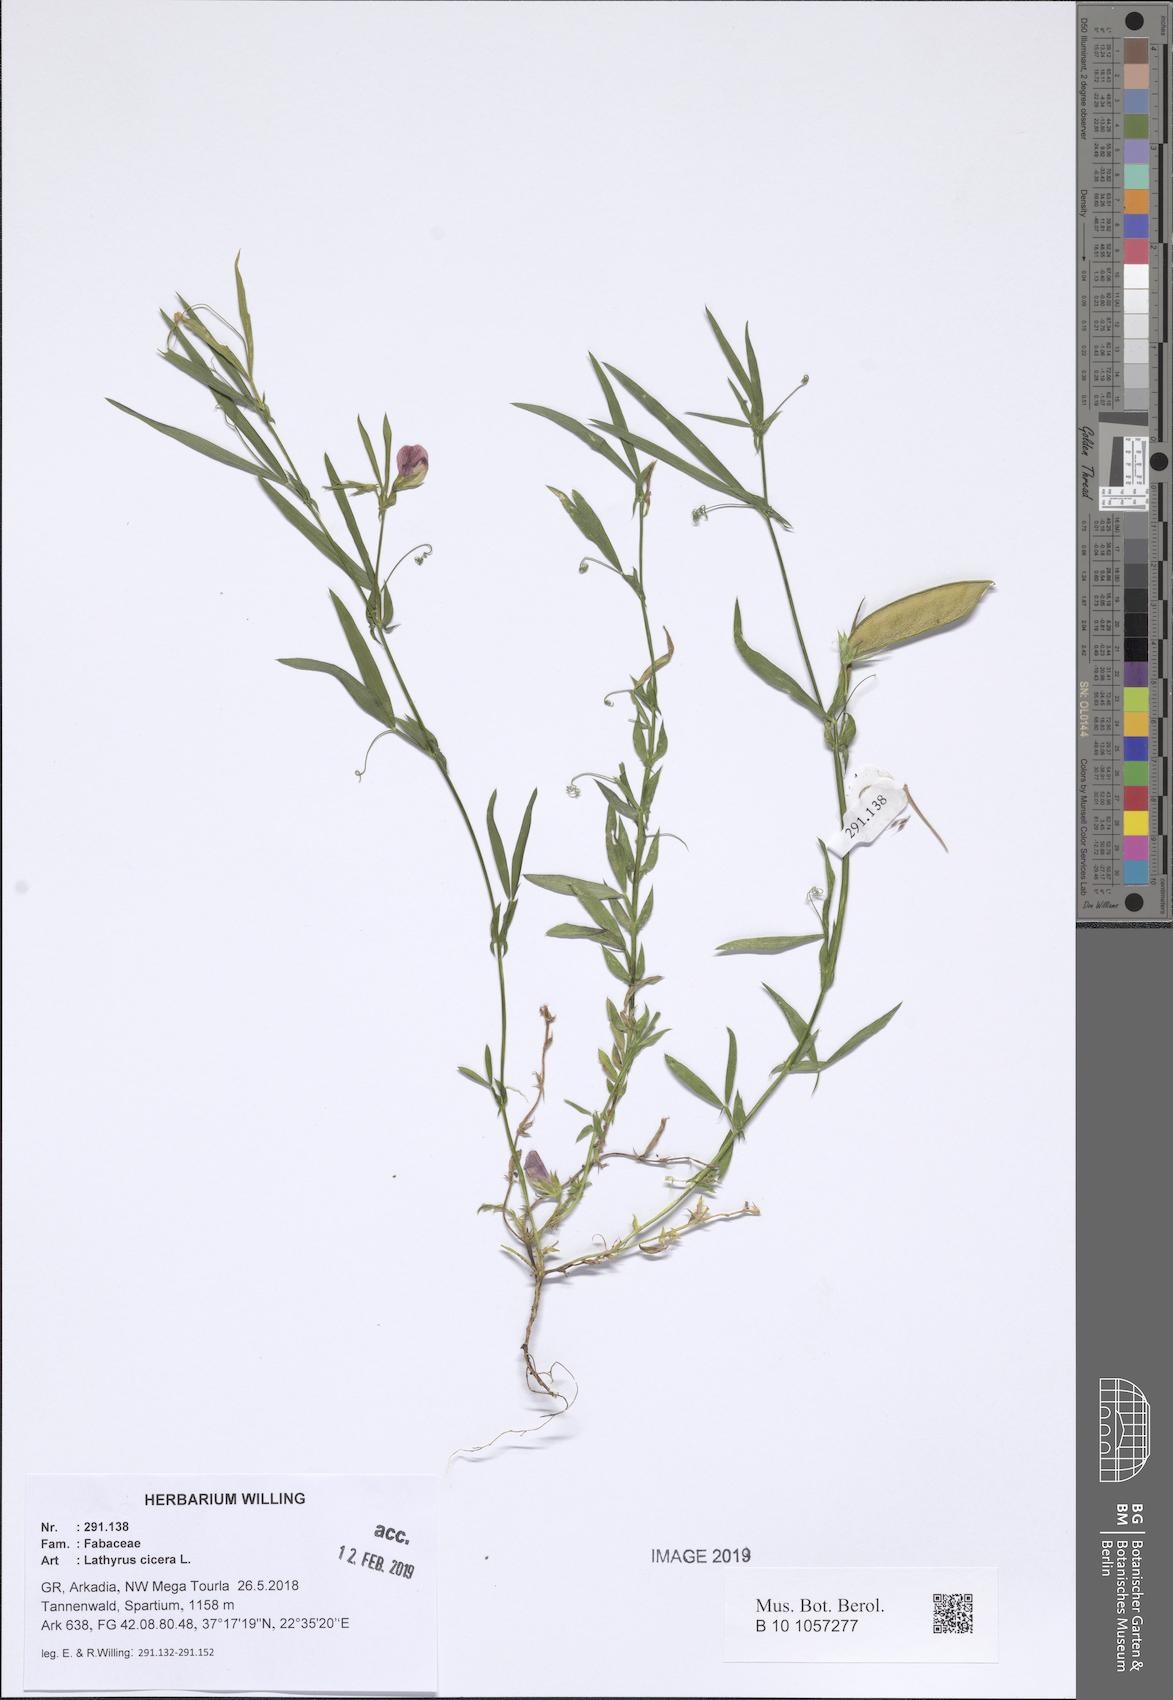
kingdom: Plantae
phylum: Tracheophyta
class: Magnoliopsida
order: Fabales
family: Fabaceae
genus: Lathyrus
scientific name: Lathyrus cicera
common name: Red vetchling
